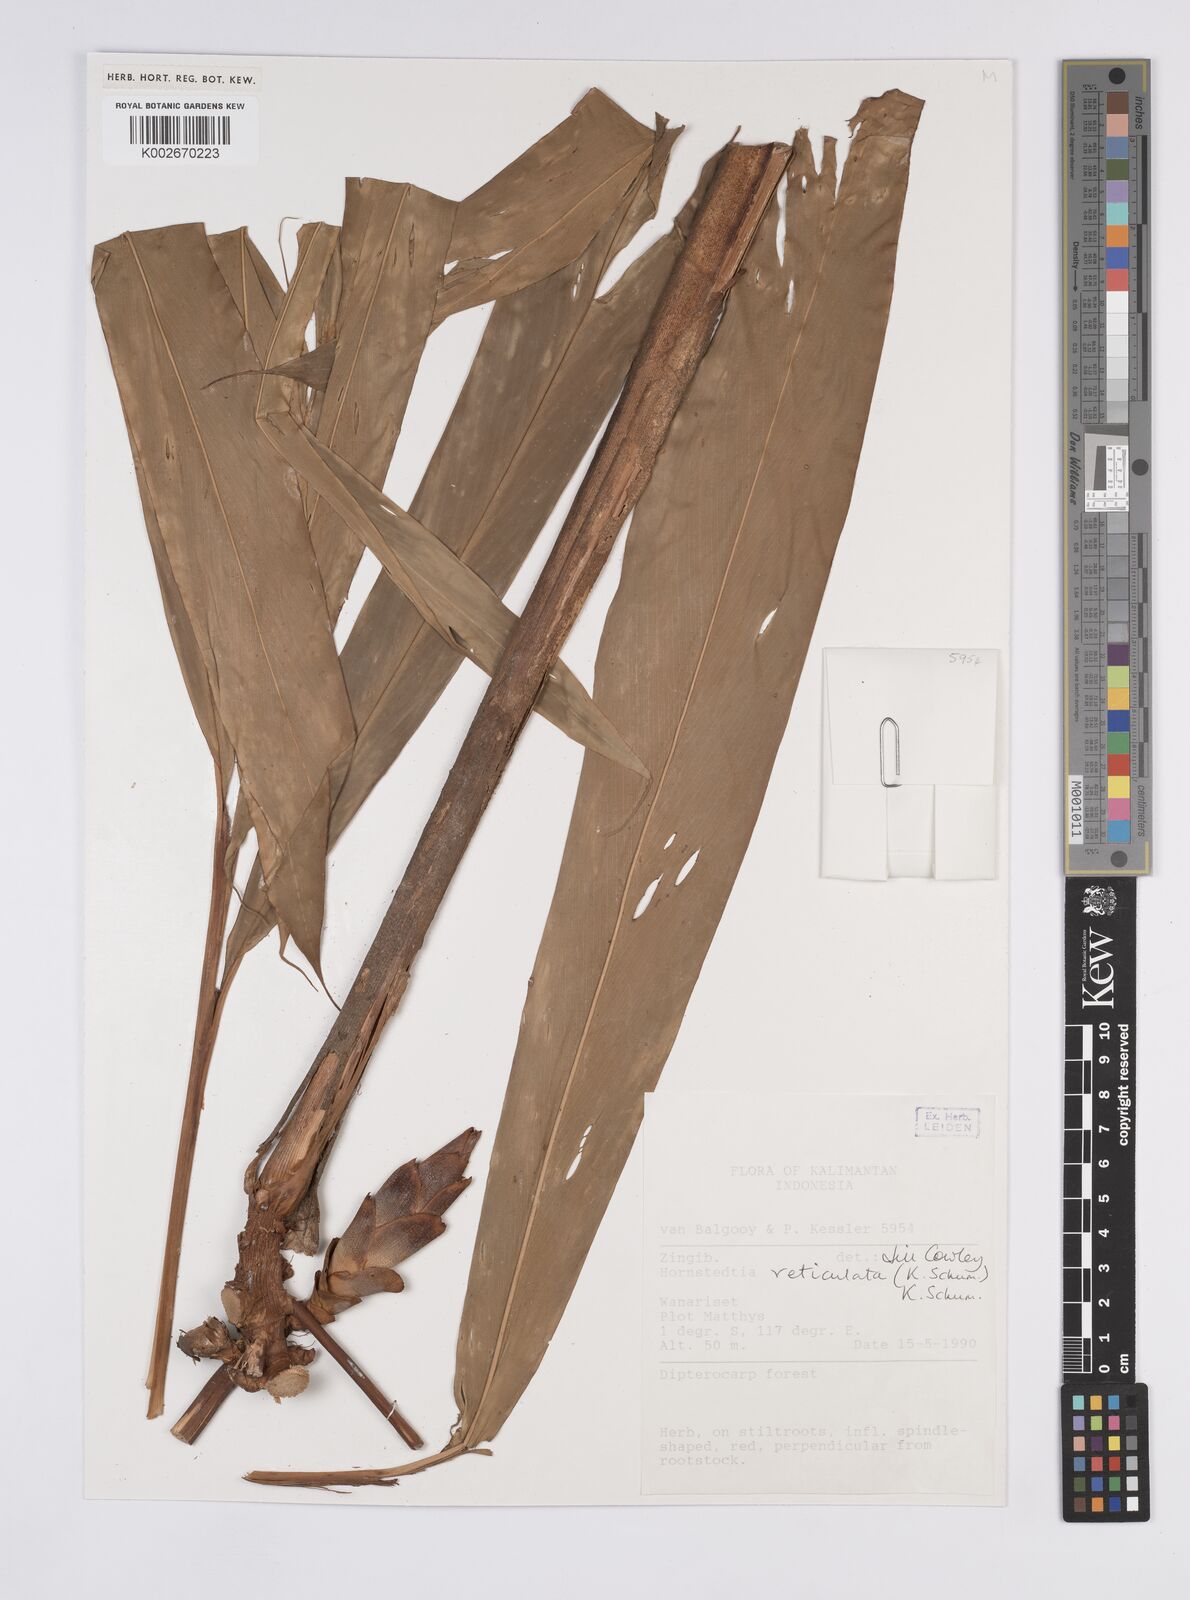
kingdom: Plantae
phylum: Tracheophyta
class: Liliopsida
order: Zingiberales
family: Zingiberaceae
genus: Hornstedtia
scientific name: Hornstedtia reticulata
